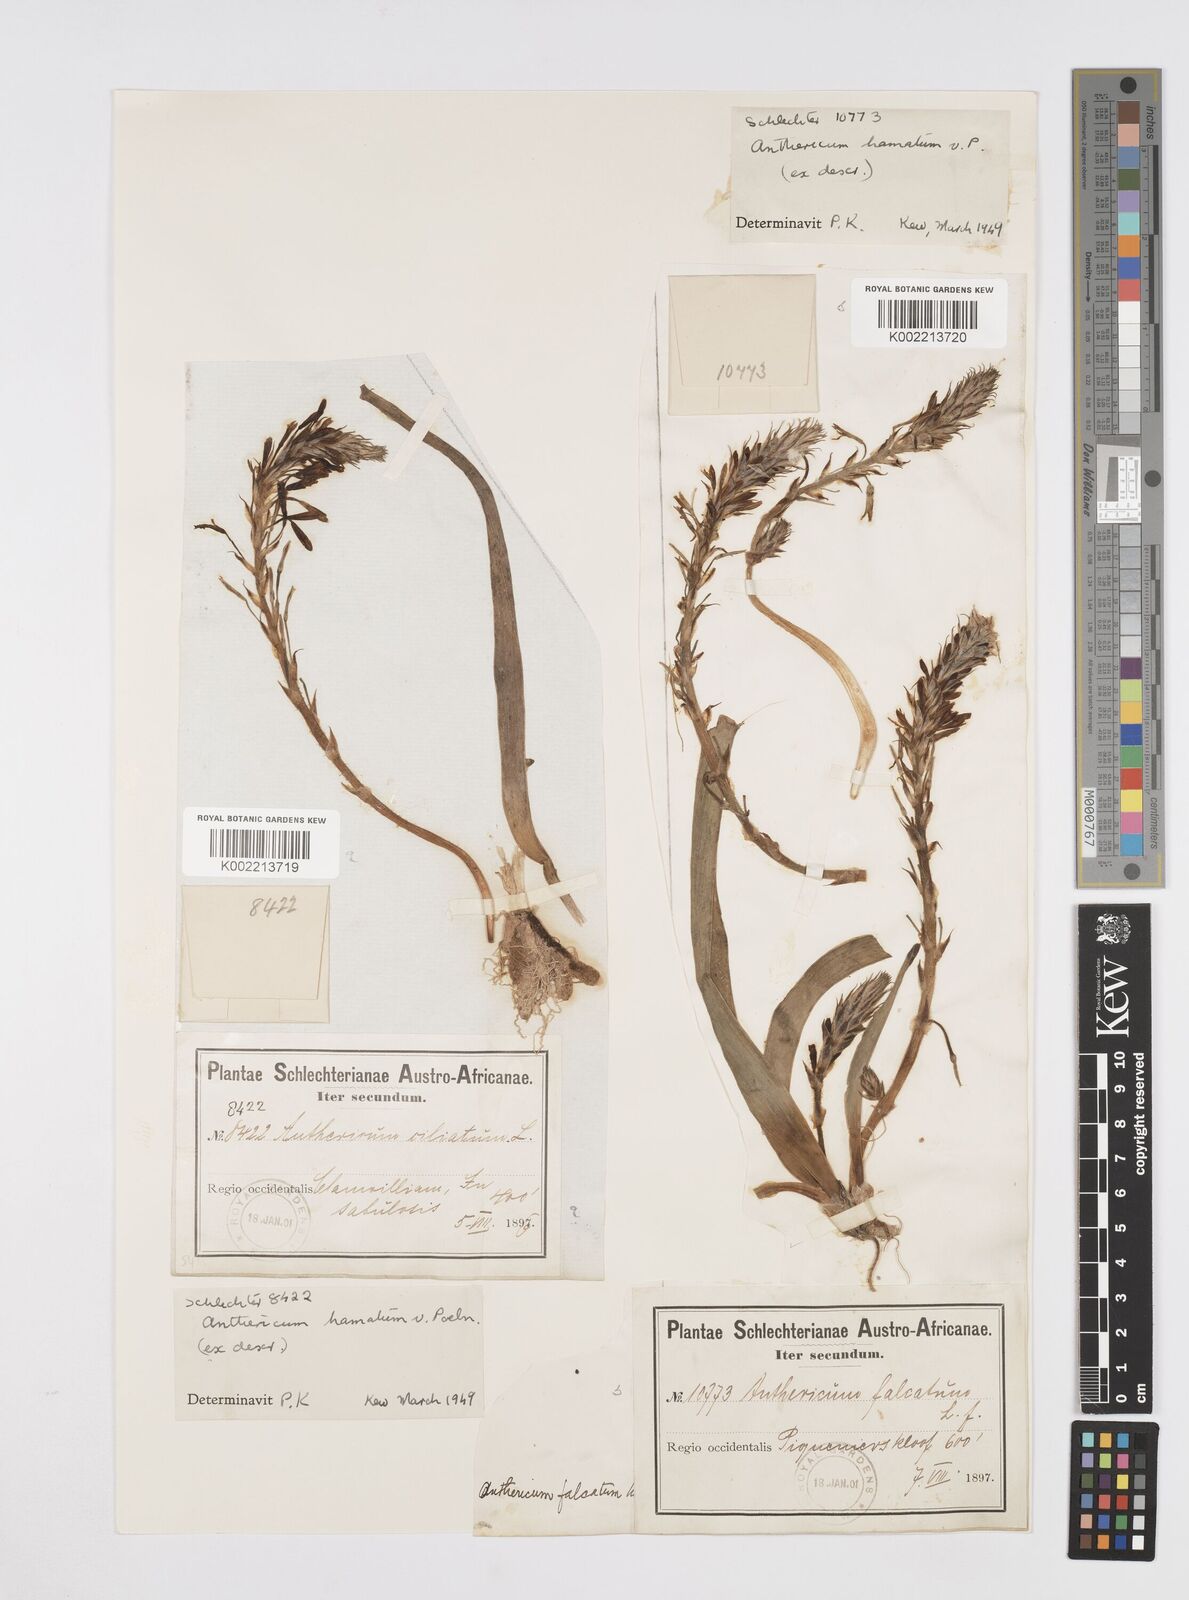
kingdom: Plantae
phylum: Tracheophyta
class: Liliopsida
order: Asparagales
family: Asphodelaceae
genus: Trachyandra
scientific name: Trachyandra ciliata
